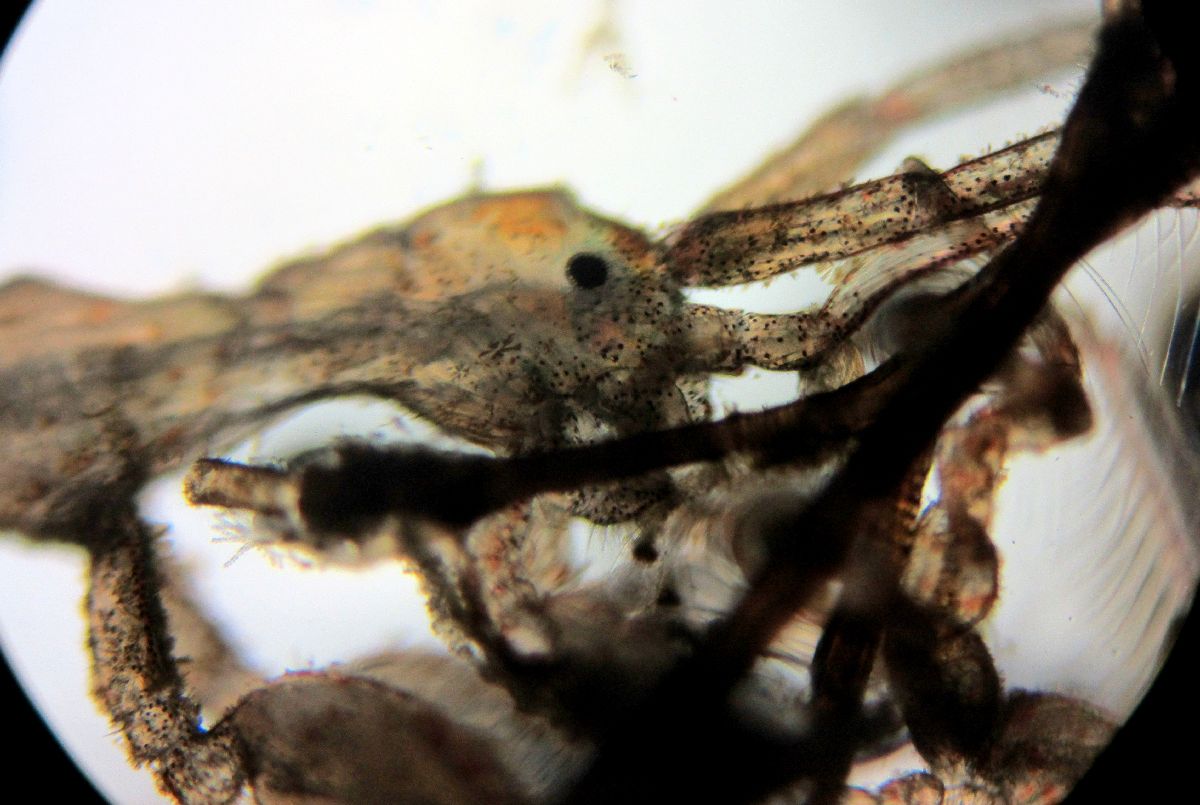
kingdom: Animalia
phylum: Arthropoda
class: Malacostraca
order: Amphipoda
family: Caprellidae
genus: Caprella
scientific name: Caprella septentrionalis
